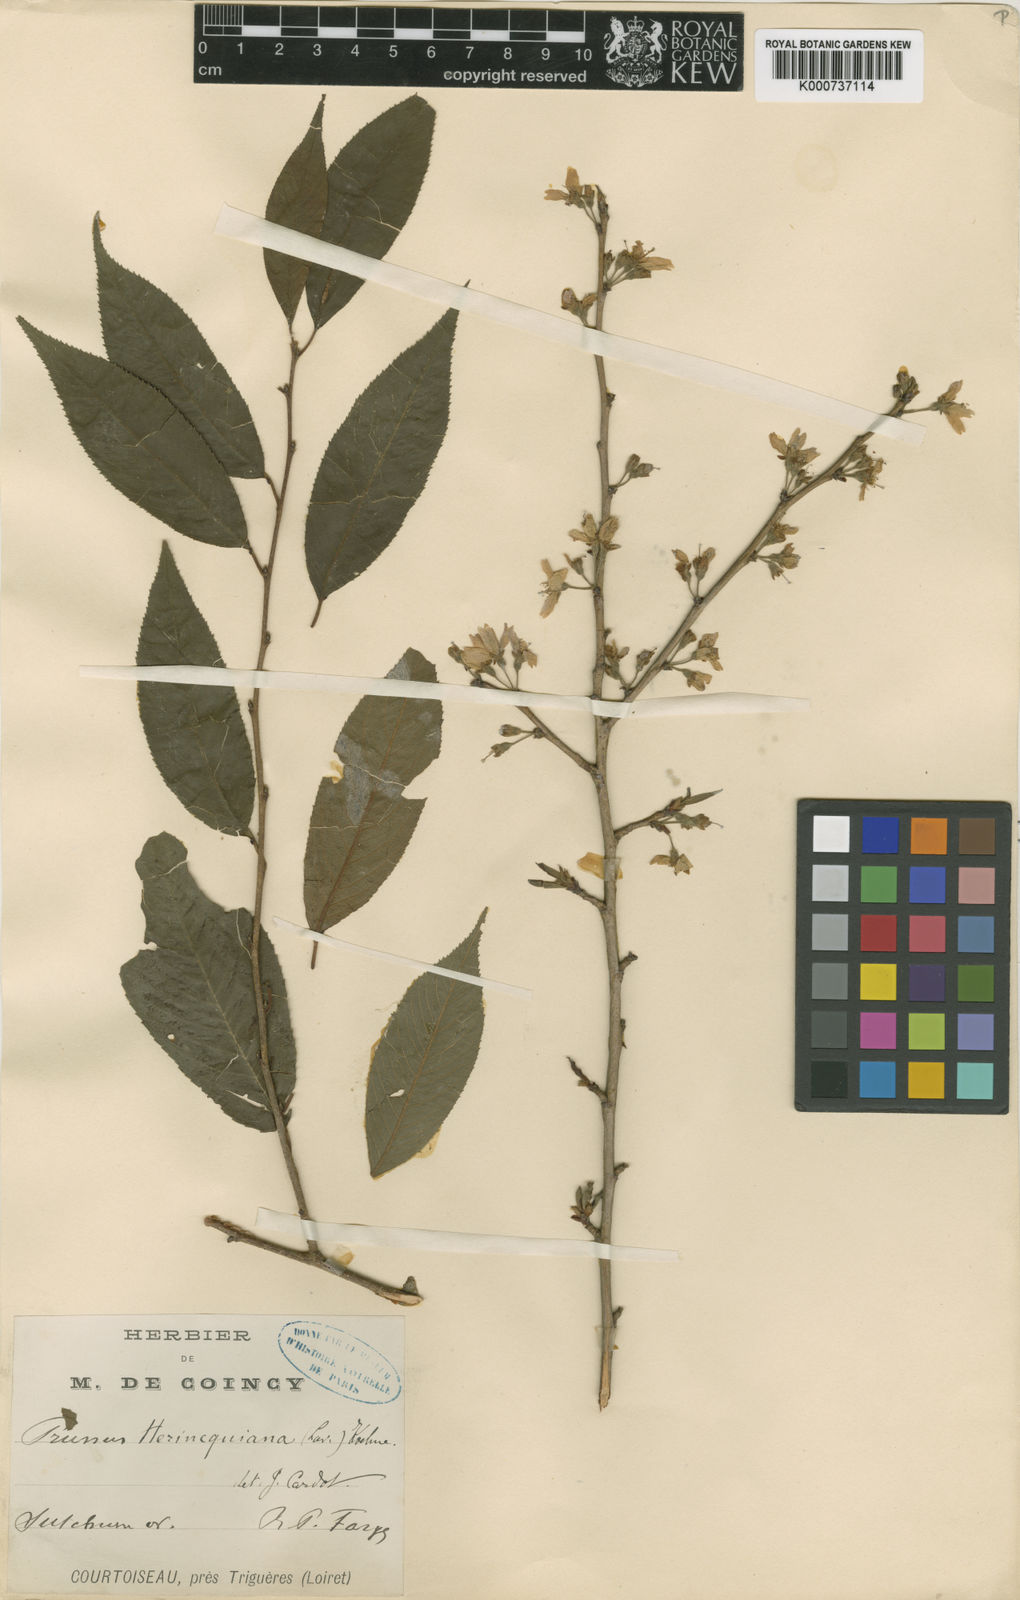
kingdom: Plantae
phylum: Tracheophyta
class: Magnoliopsida
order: Rosales
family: Rosaceae
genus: Prunus
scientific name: Prunus
